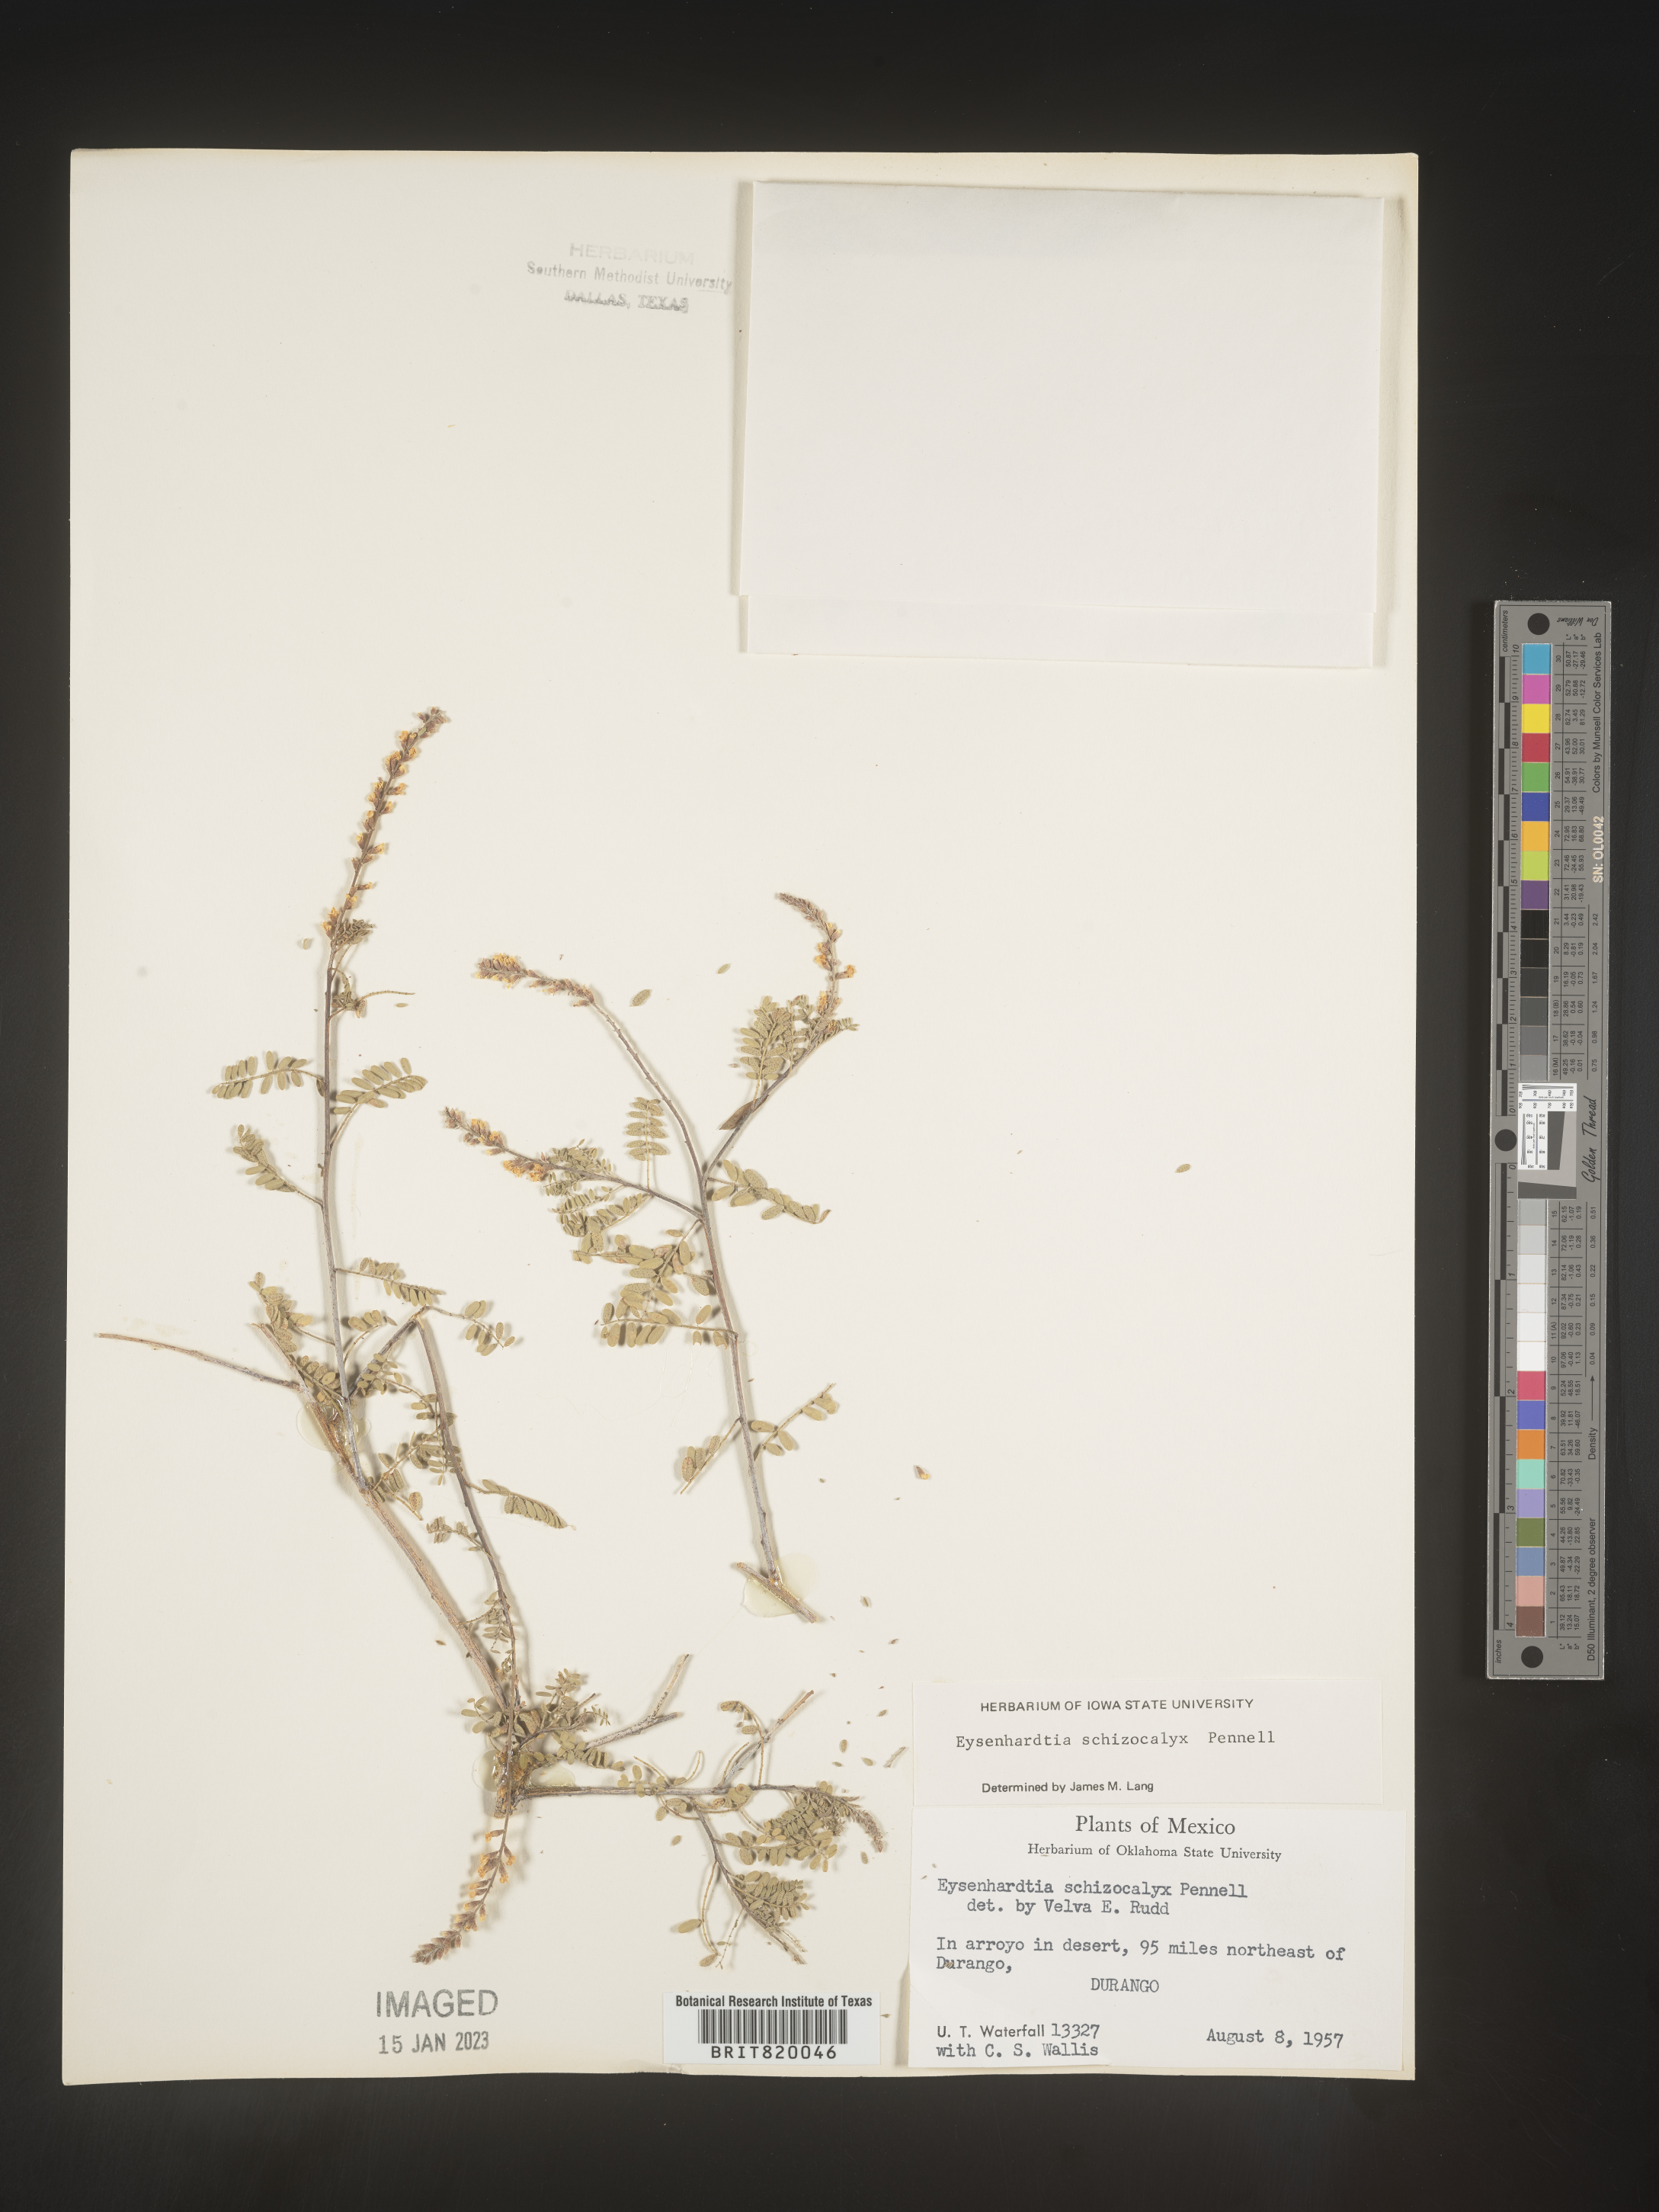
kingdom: Plantae
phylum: Tracheophyta
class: Magnoliopsida
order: Fabales
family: Fabaceae
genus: Eysenhardtia
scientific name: Eysenhardtia
